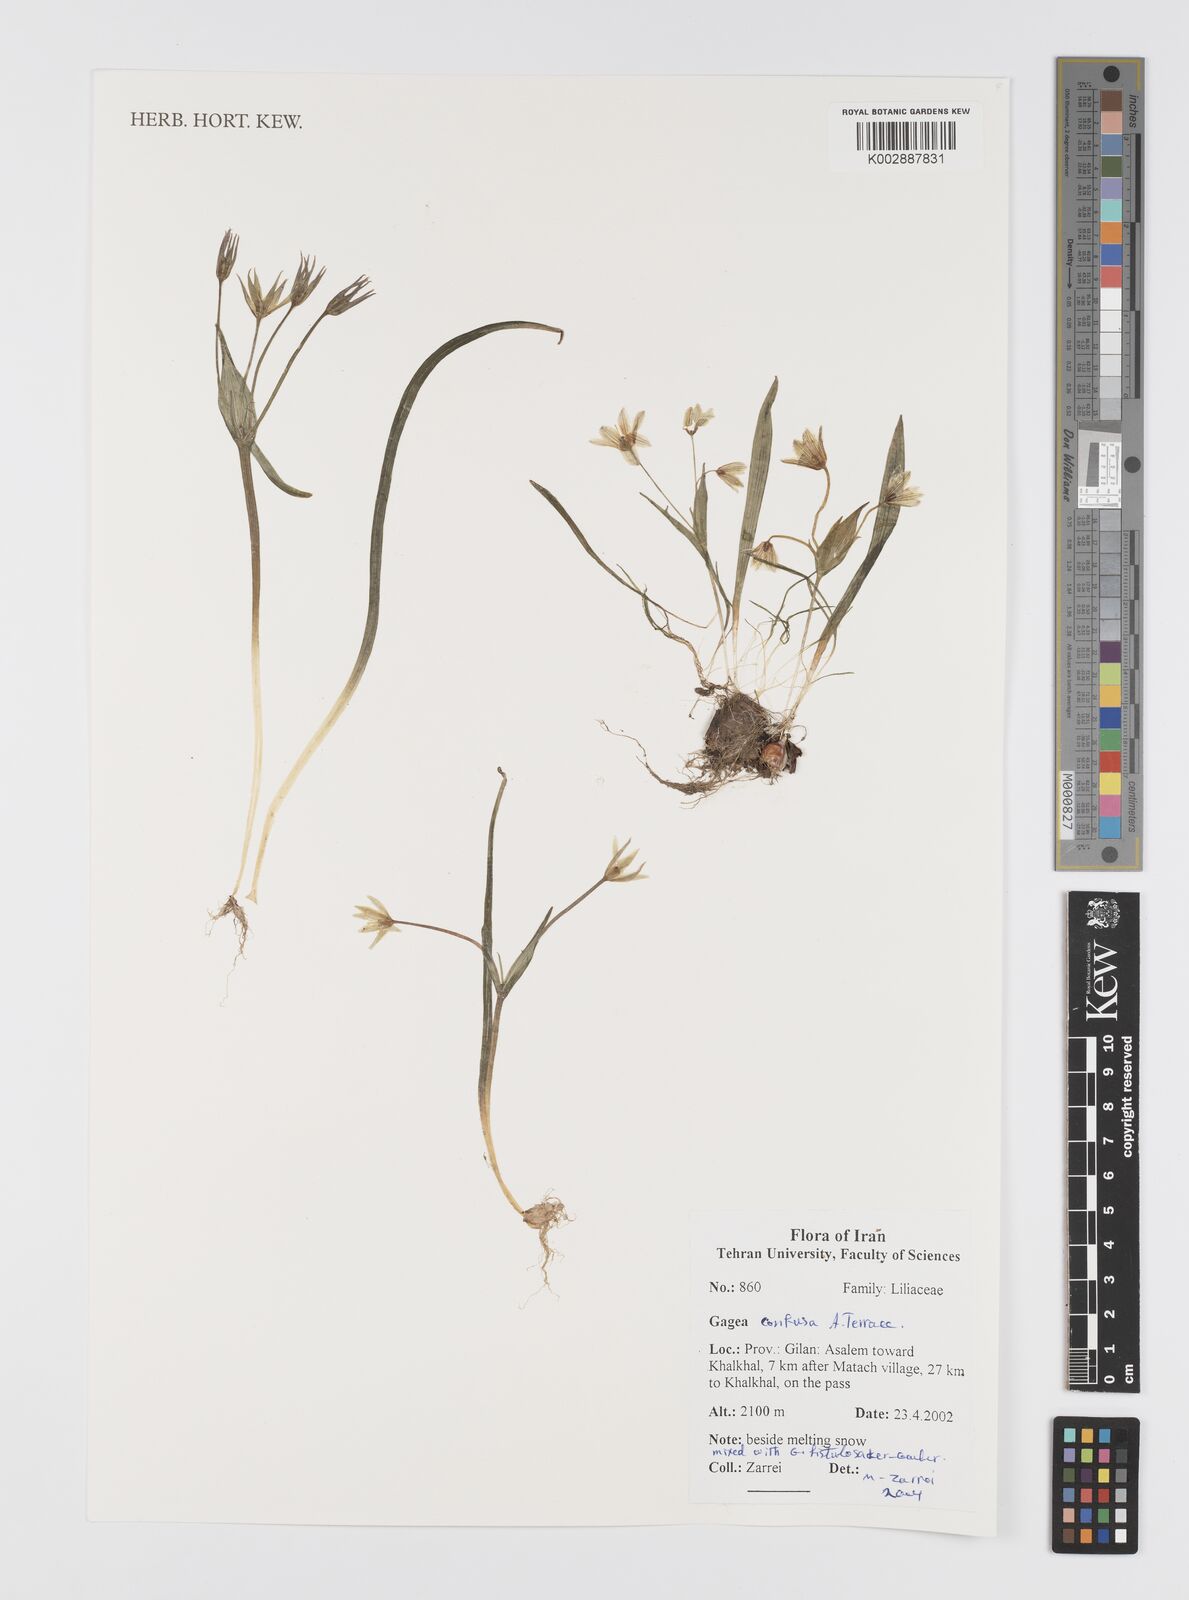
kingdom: Plantae
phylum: Tracheophyta
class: Liliopsida
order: Liliales
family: Liliaceae
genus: Gagea
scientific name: Gagea confusa
